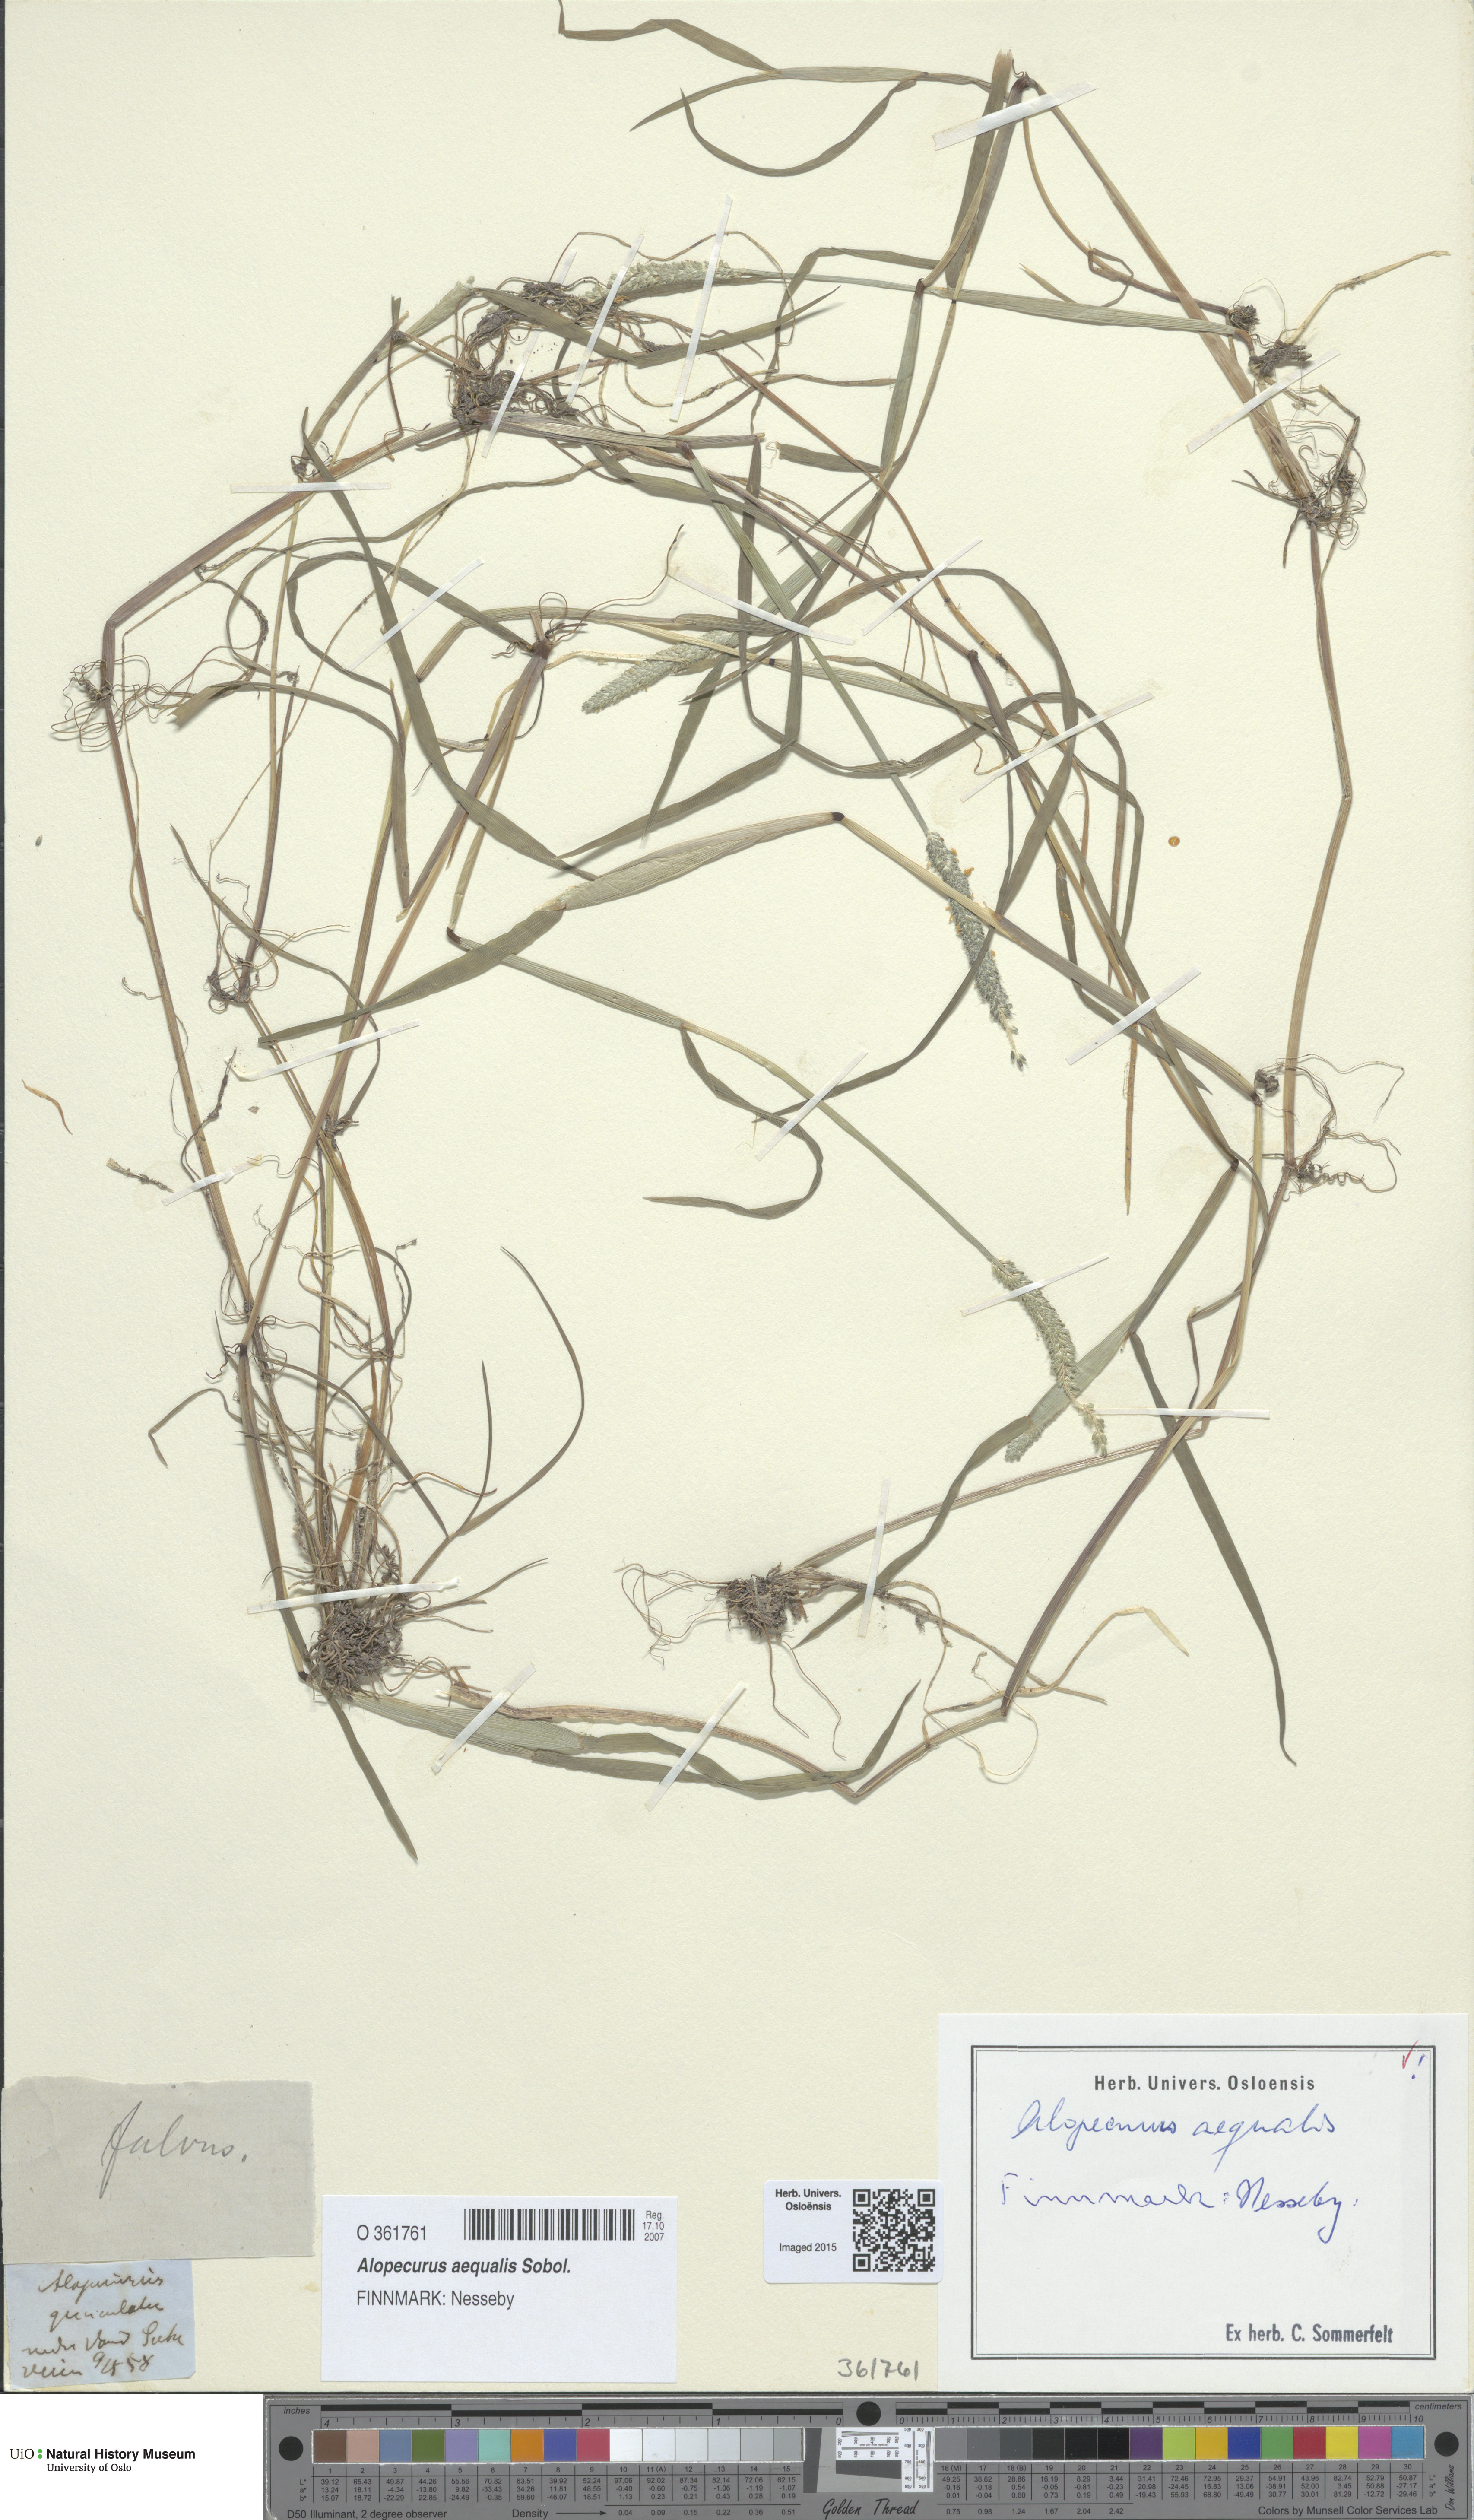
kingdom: Plantae
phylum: Tracheophyta
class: Liliopsida
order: Poales
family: Poaceae
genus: Alopecurus
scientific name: Alopecurus aequalis
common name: Orange foxtail
